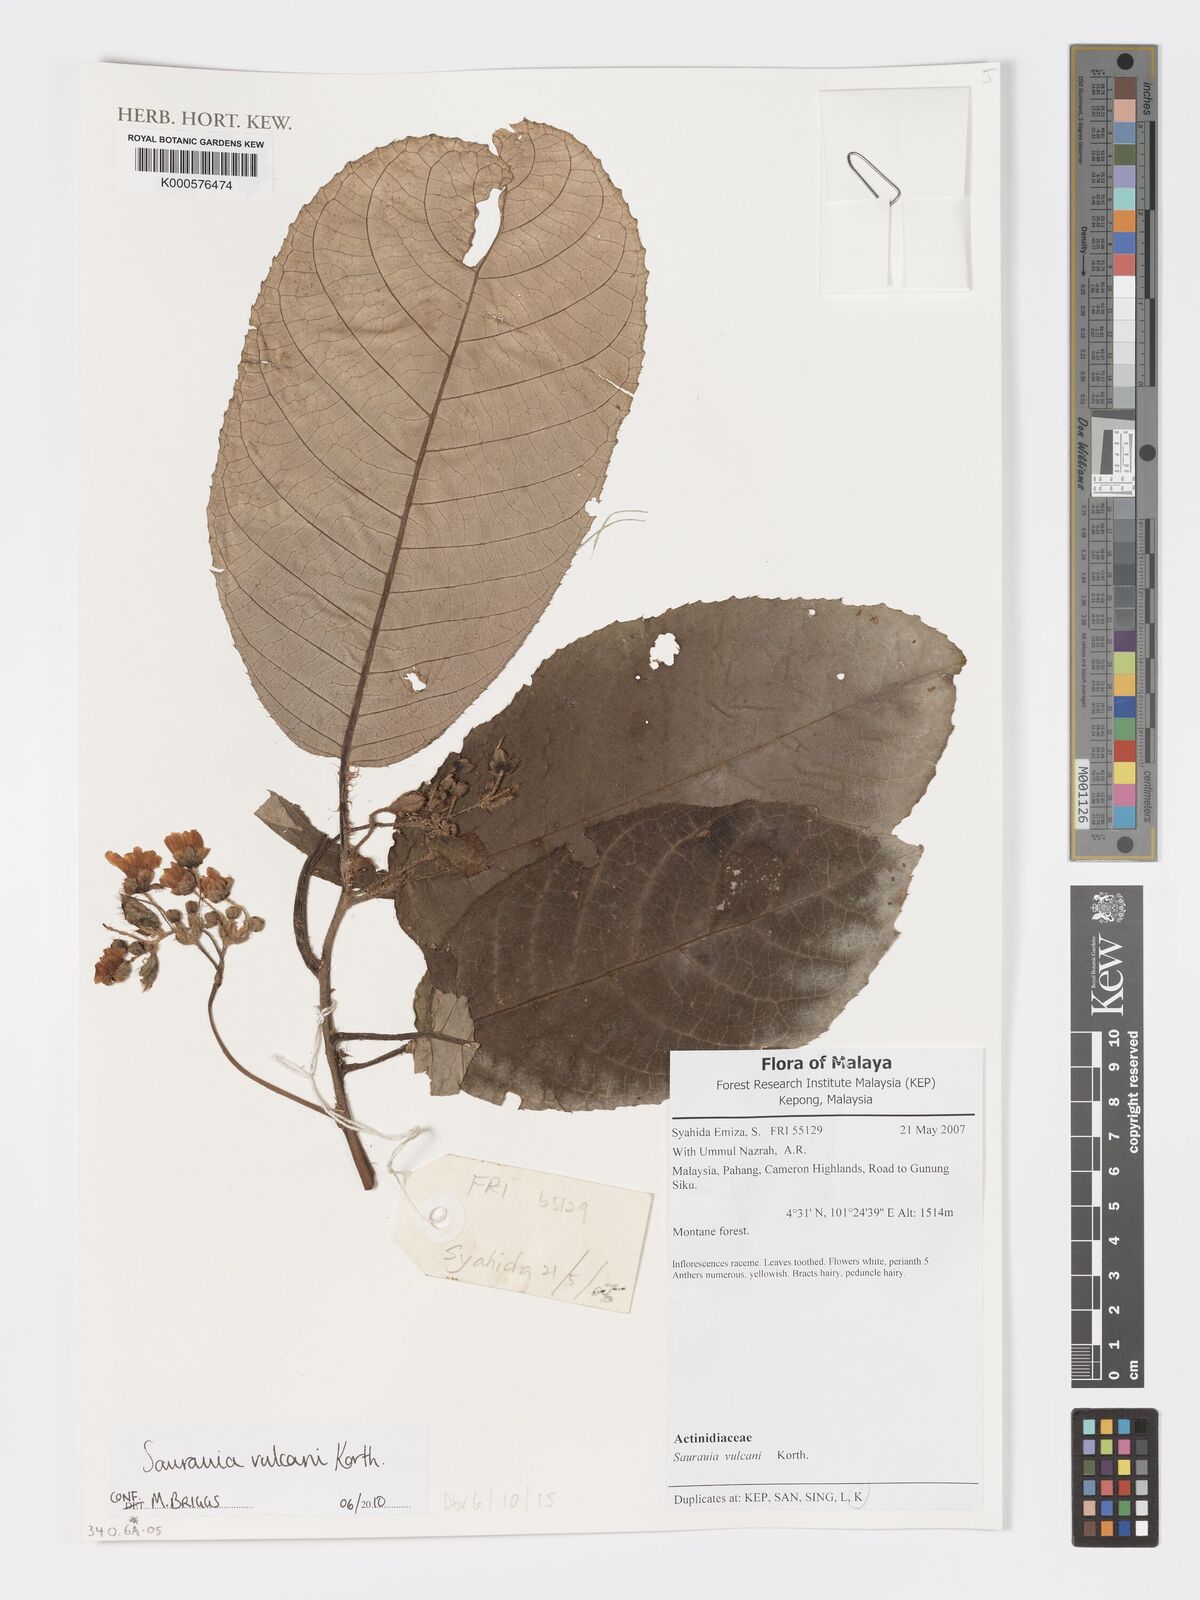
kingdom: Plantae
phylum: Tracheophyta
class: Magnoliopsida
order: Ericales
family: Actinidiaceae
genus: Saurauia
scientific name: Saurauia vulcani
